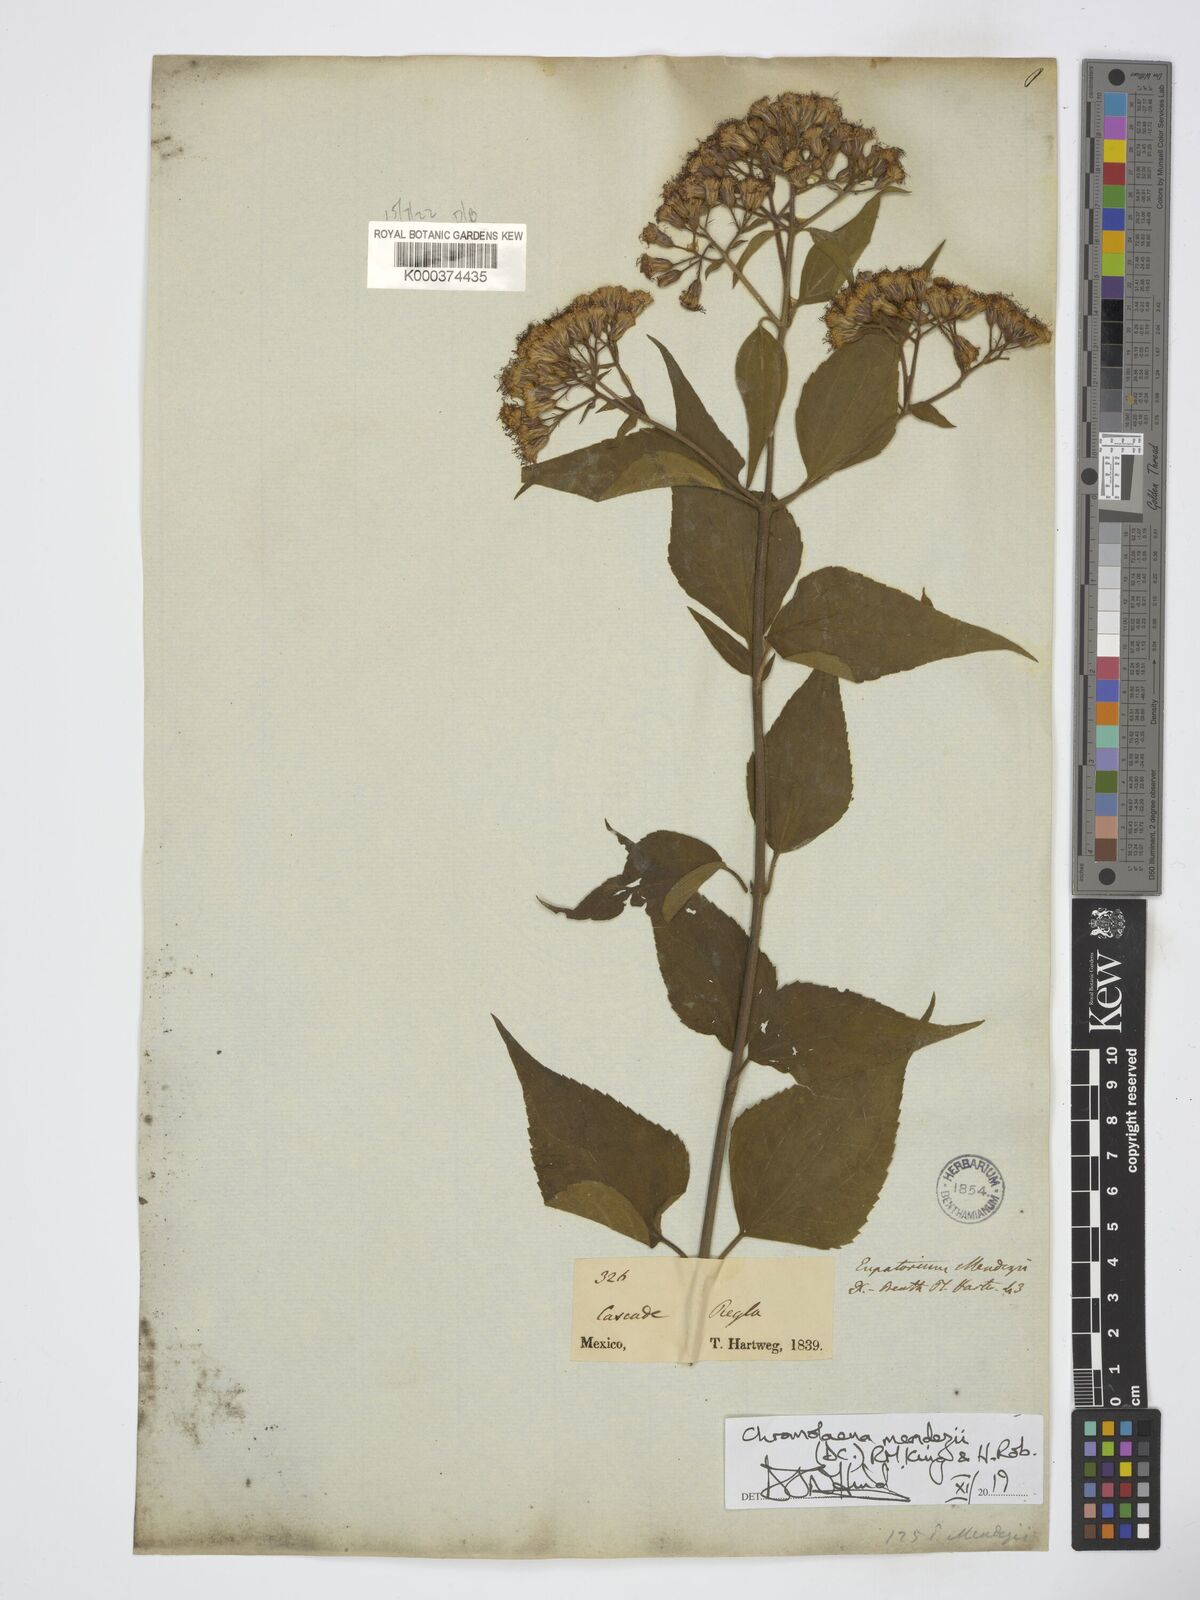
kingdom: Plantae
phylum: Tracheophyta
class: Magnoliopsida
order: Asterales
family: Asteraceae
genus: Chromolaena
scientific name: Chromolaena collina
